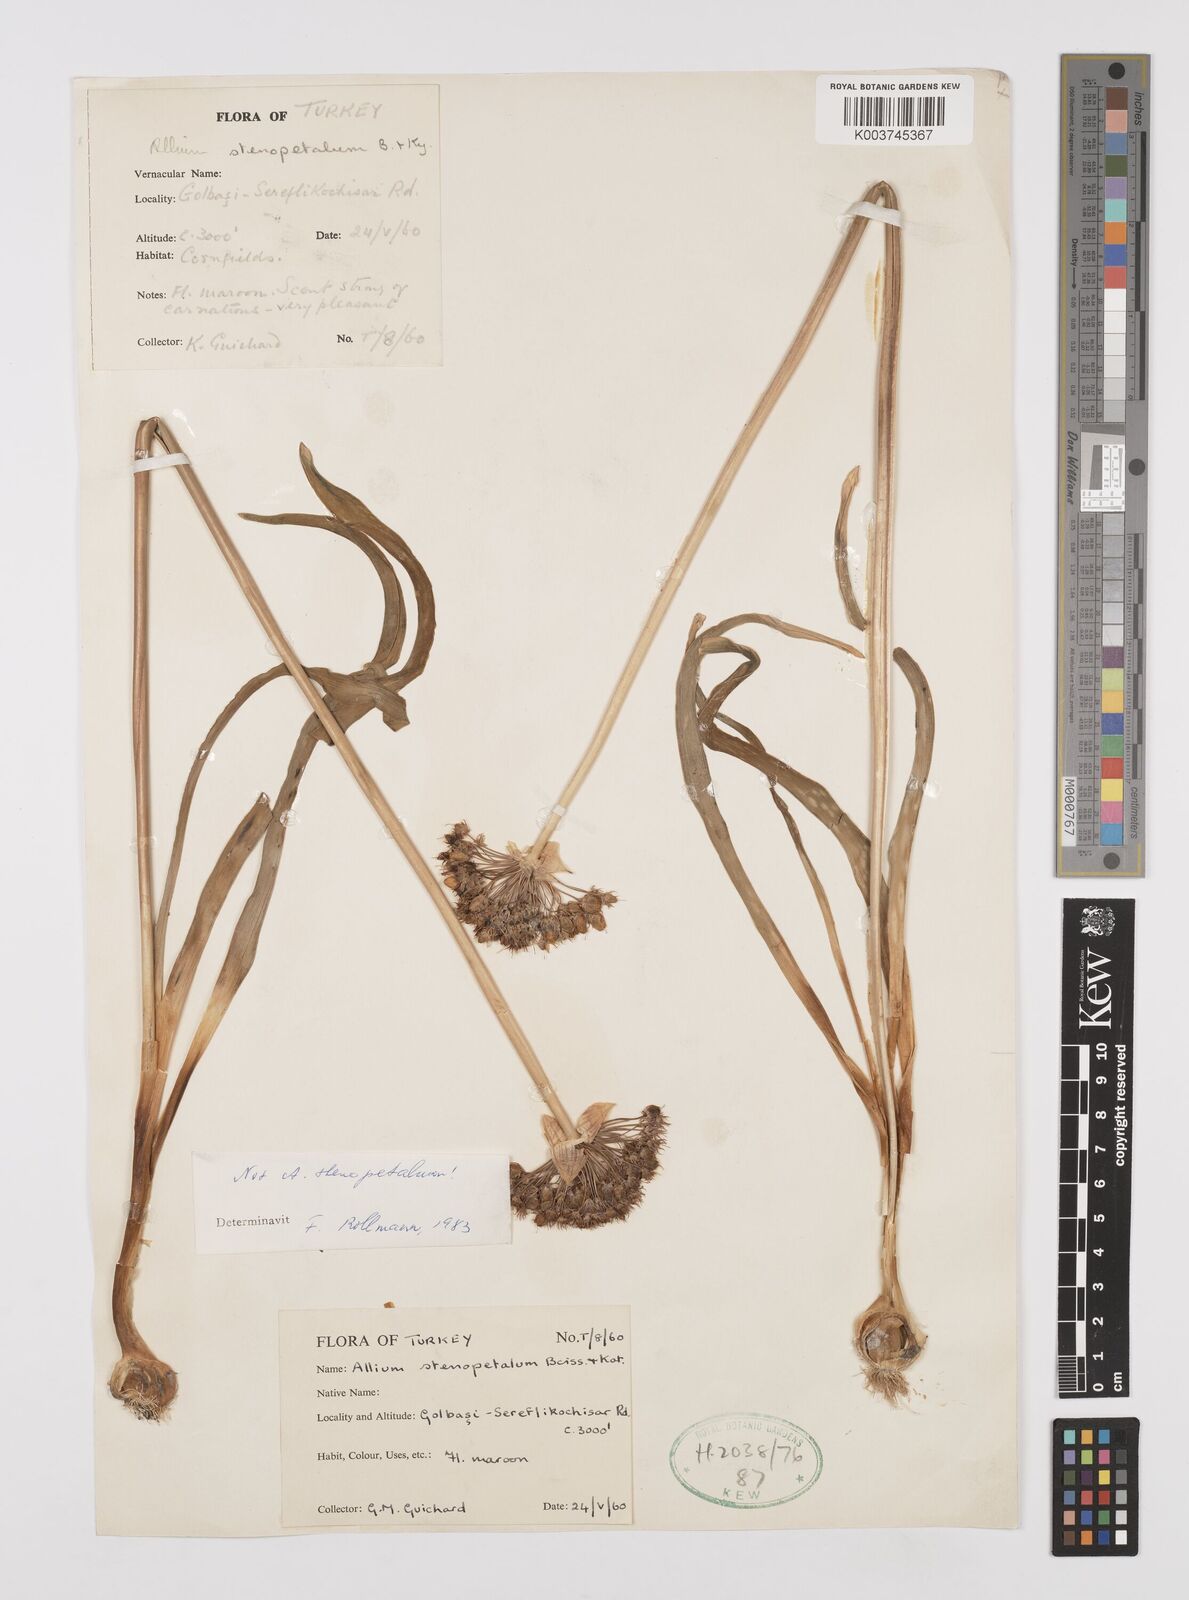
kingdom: Plantae
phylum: Tracheophyta
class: Liliopsida
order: Asparagales
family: Amaryllidaceae
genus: Allium
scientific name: Allium
